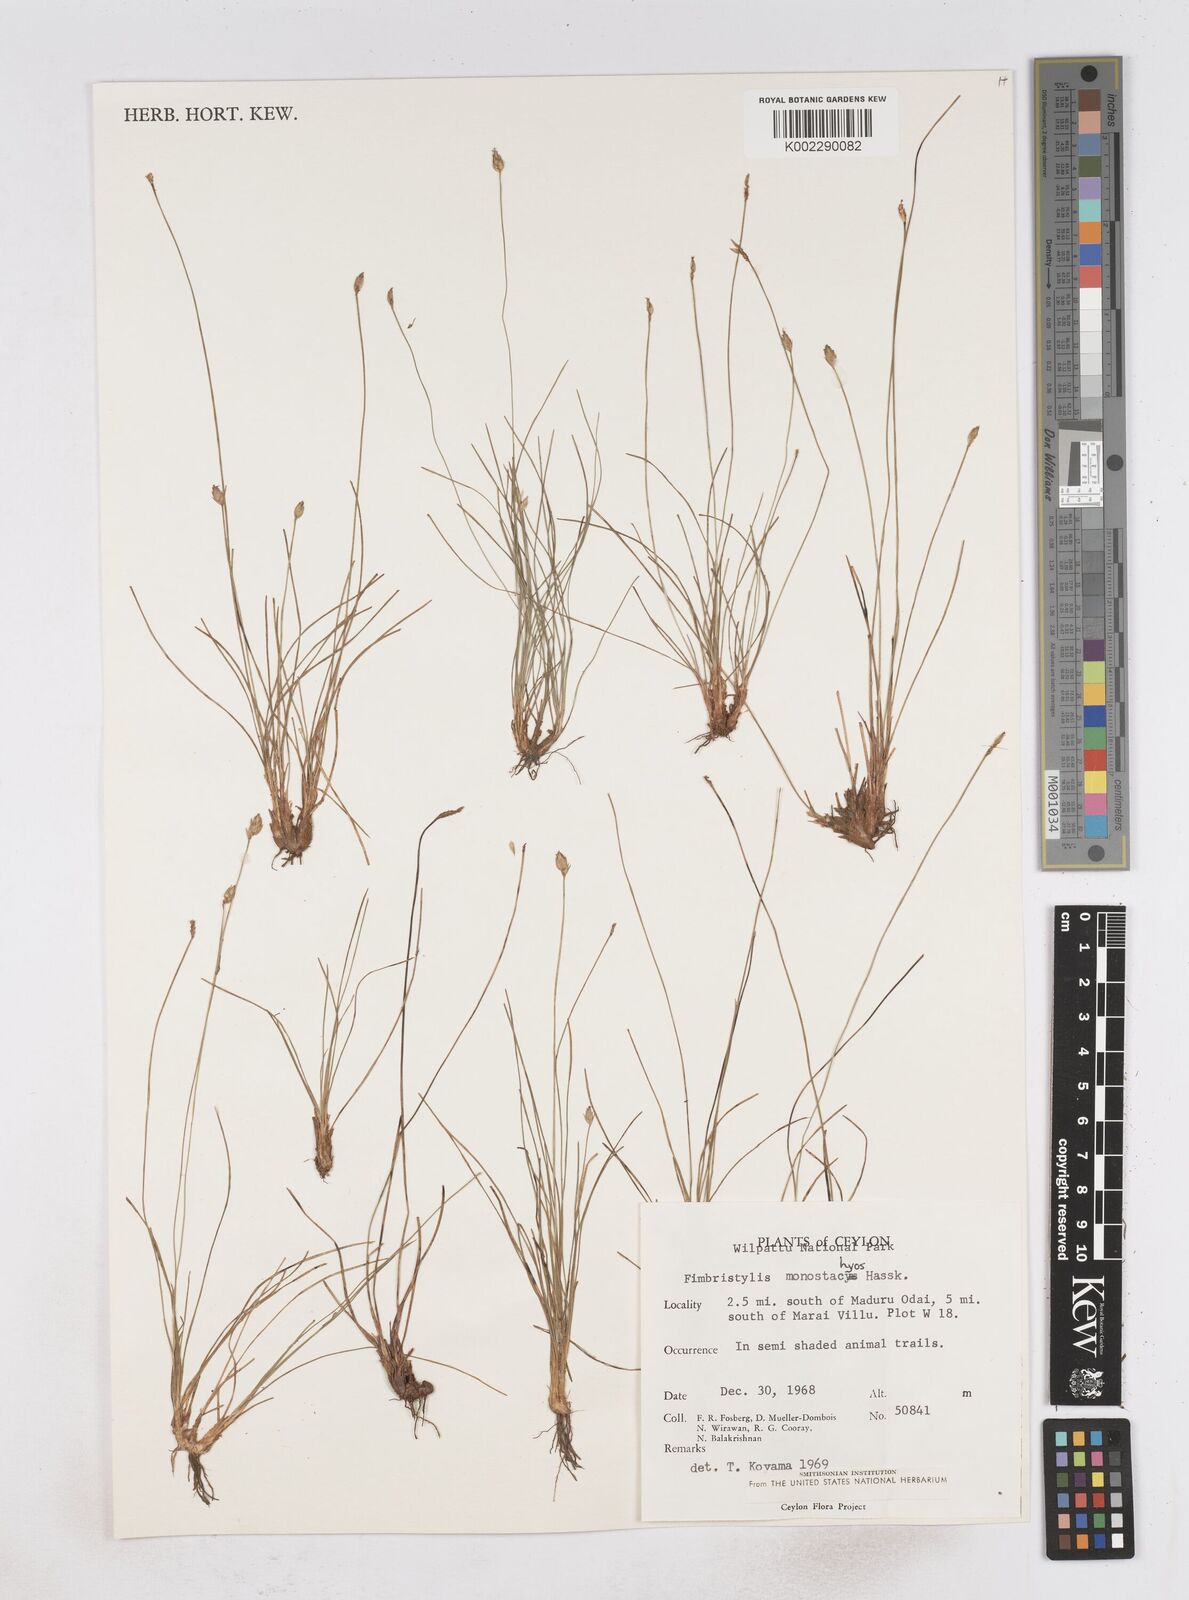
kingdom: Plantae
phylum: Tracheophyta
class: Liliopsida
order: Poales
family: Cyperaceae
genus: Abildgaardia
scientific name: Abildgaardia ovata
